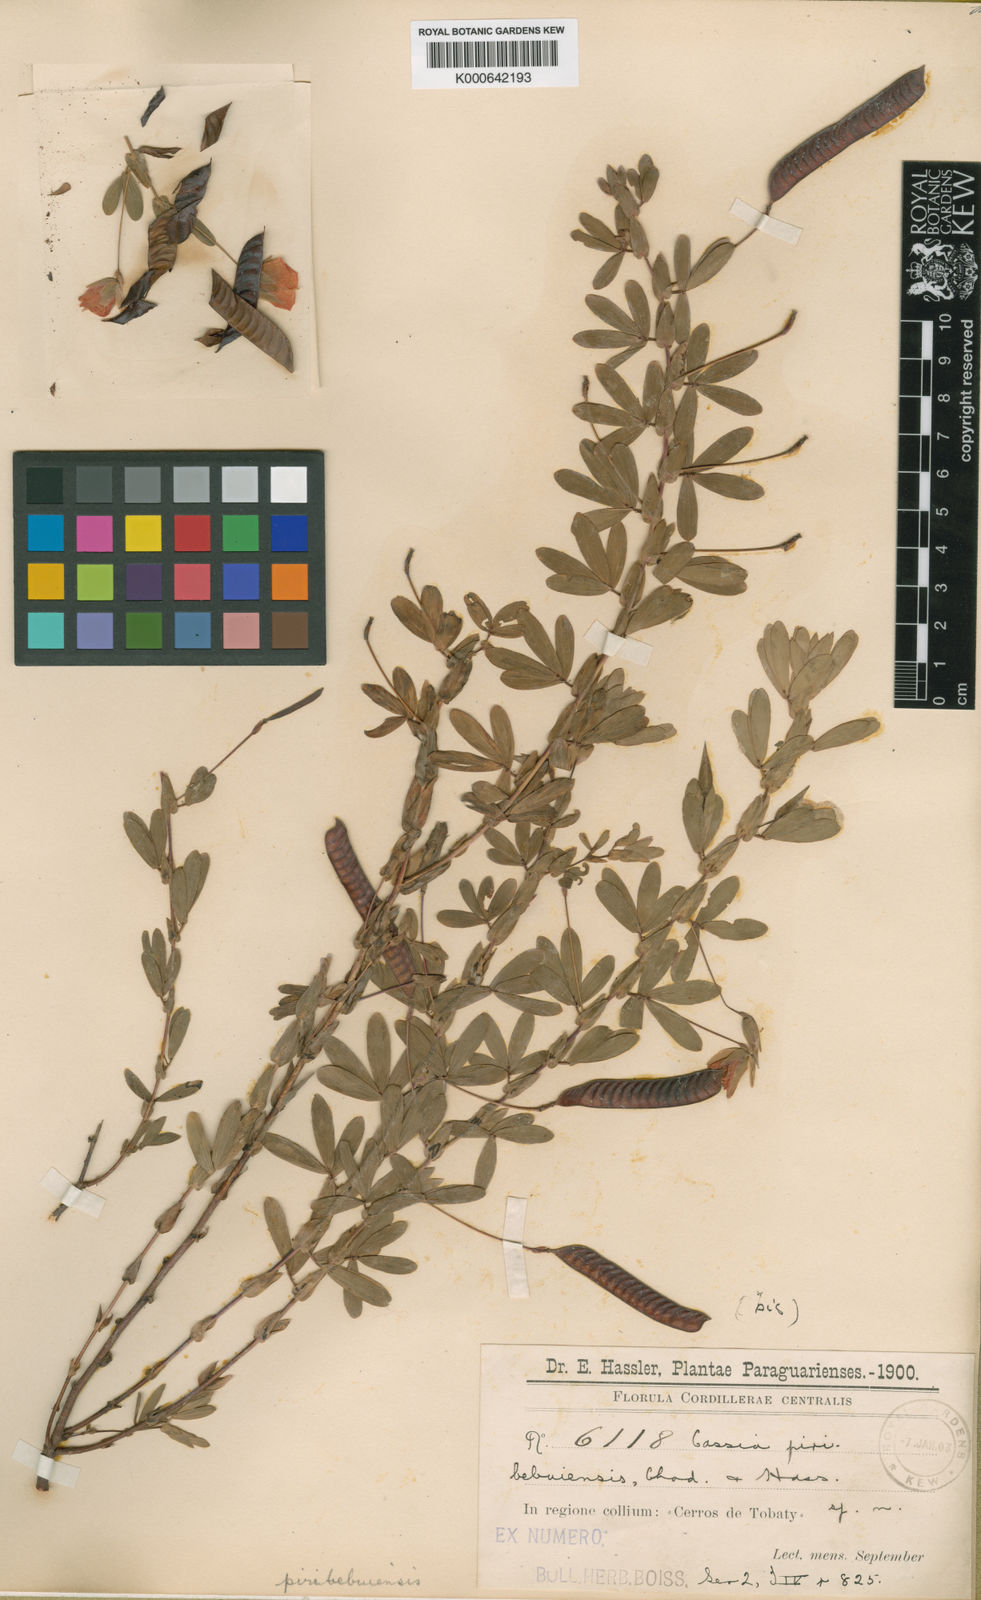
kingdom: Plantae
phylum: Tracheophyta
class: Magnoliopsida
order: Fabales
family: Fabaceae
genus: Chamaecrista
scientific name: Chamaecrista desvauxii
